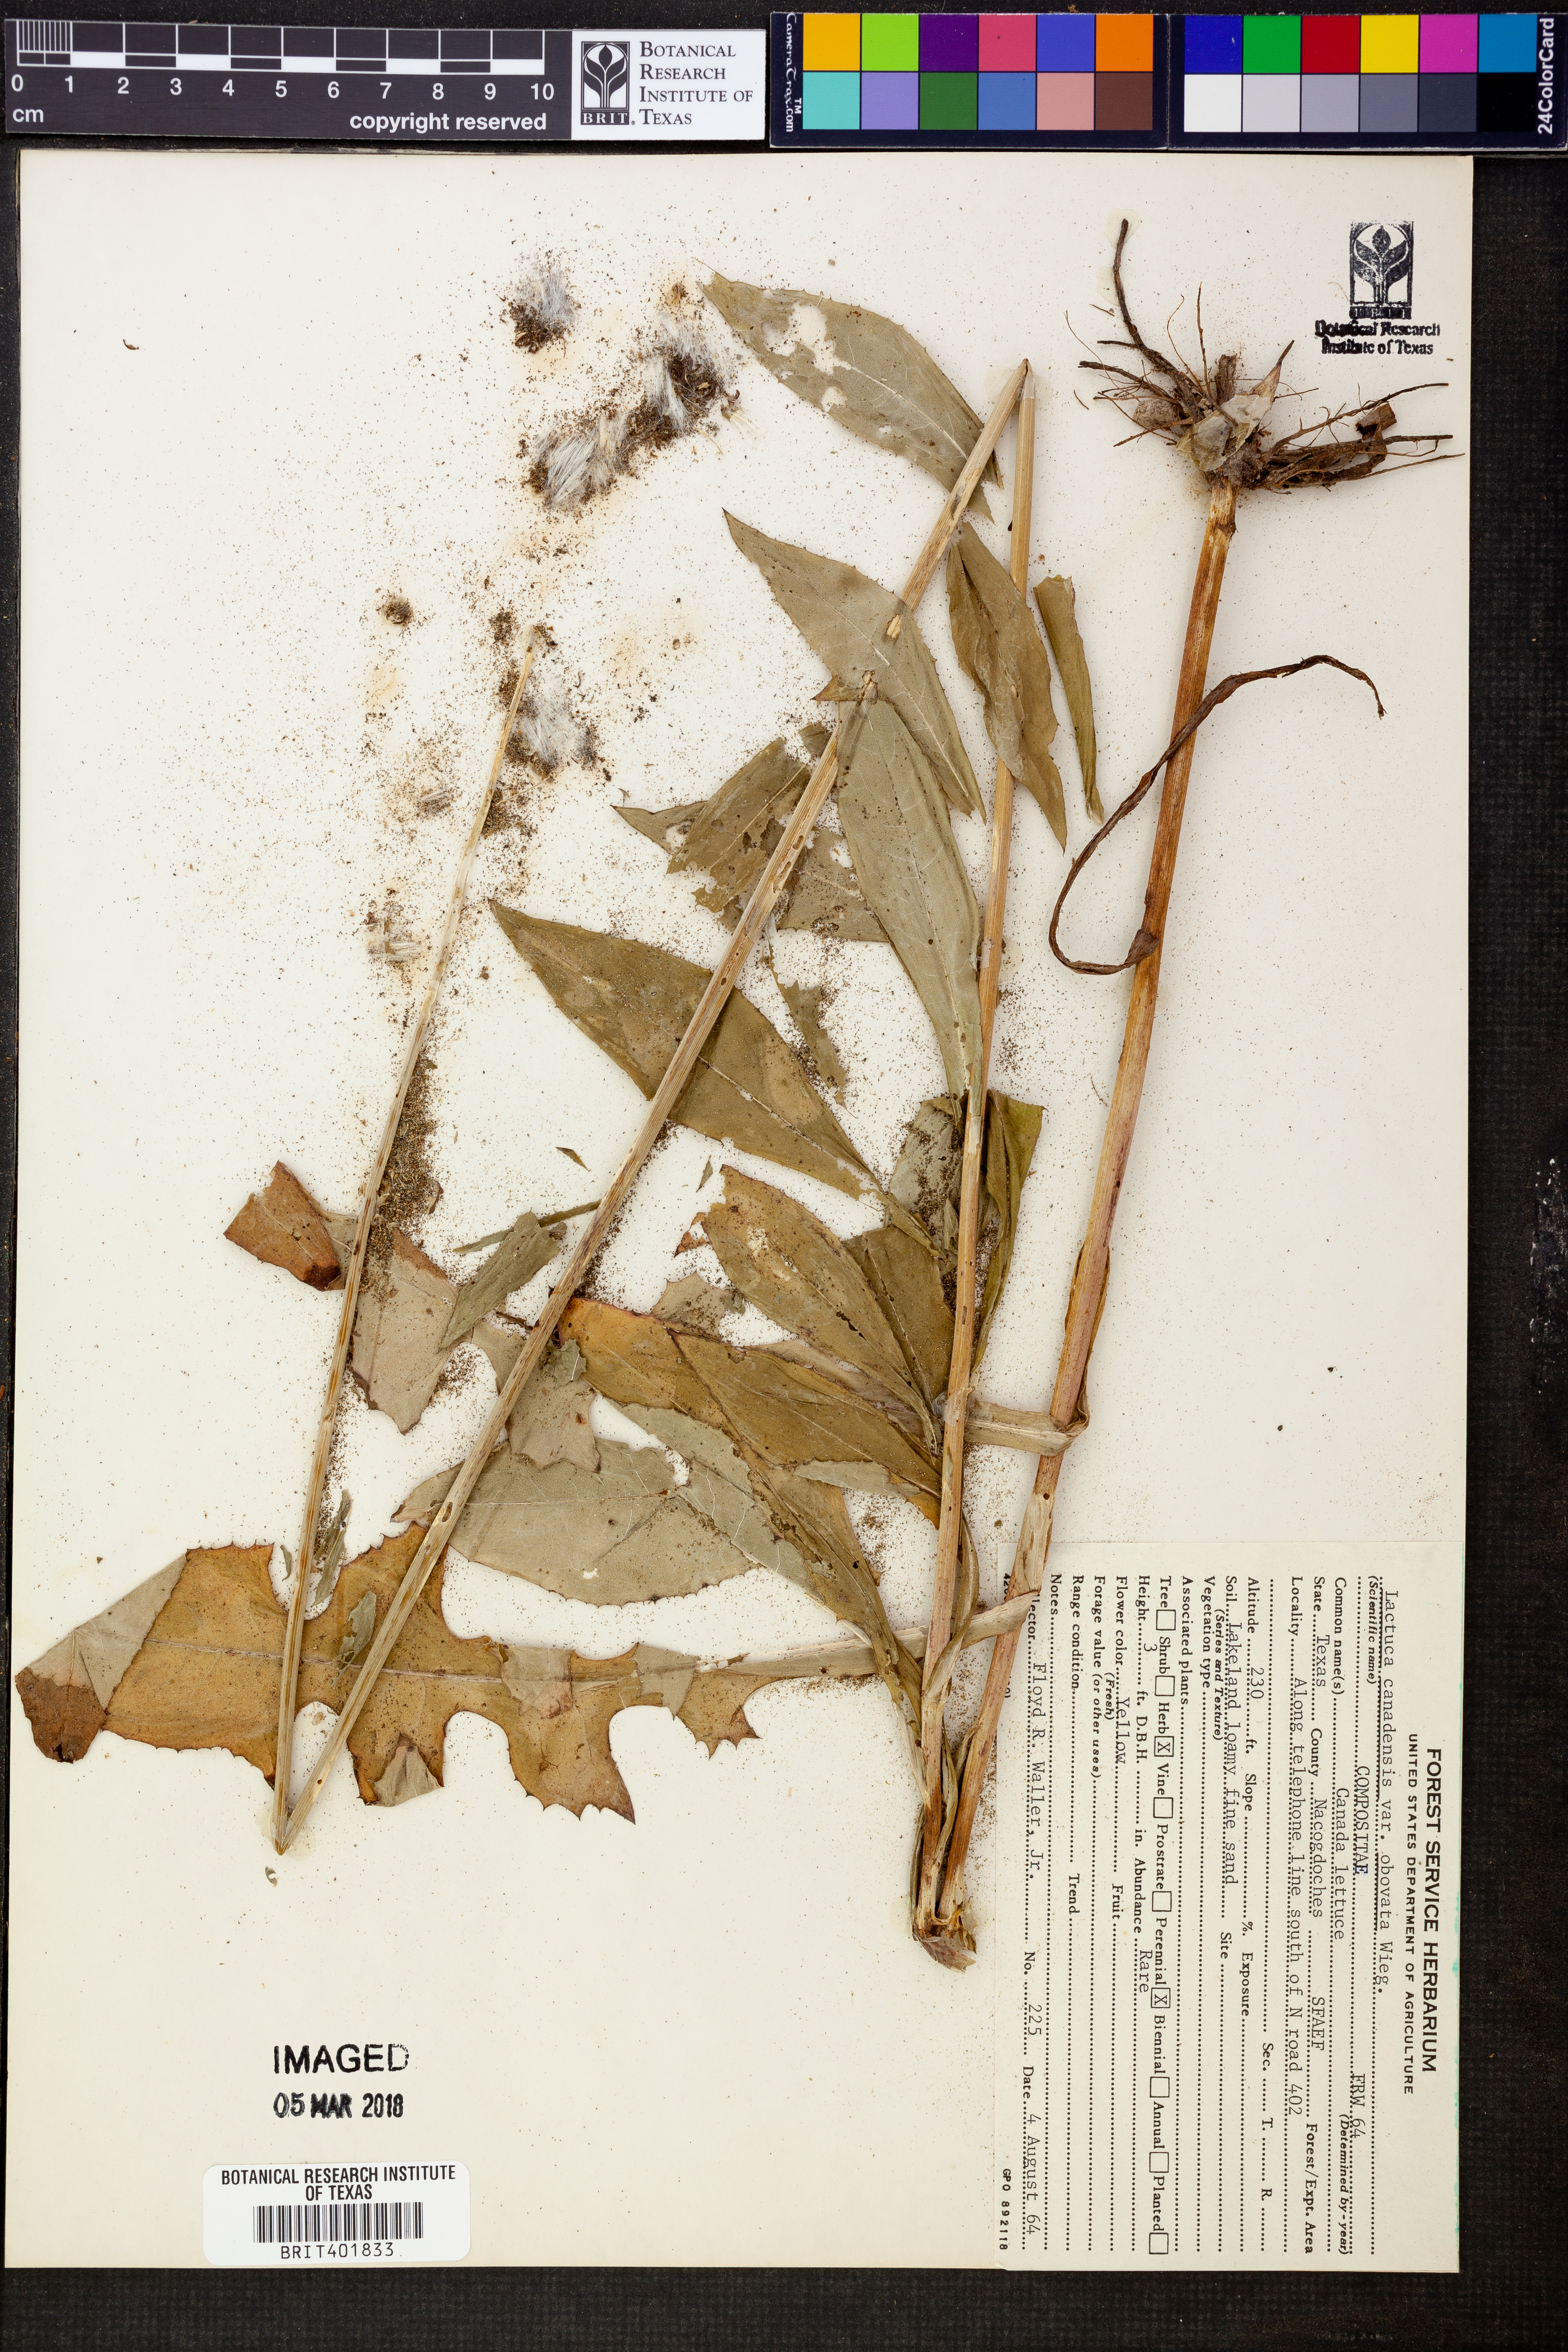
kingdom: Plantae
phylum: Tracheophyta
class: Magnoliopsida
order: Asterales
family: Asteraceae
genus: Lactuca
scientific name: Lactuca canadensis
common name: Canada lettuce
